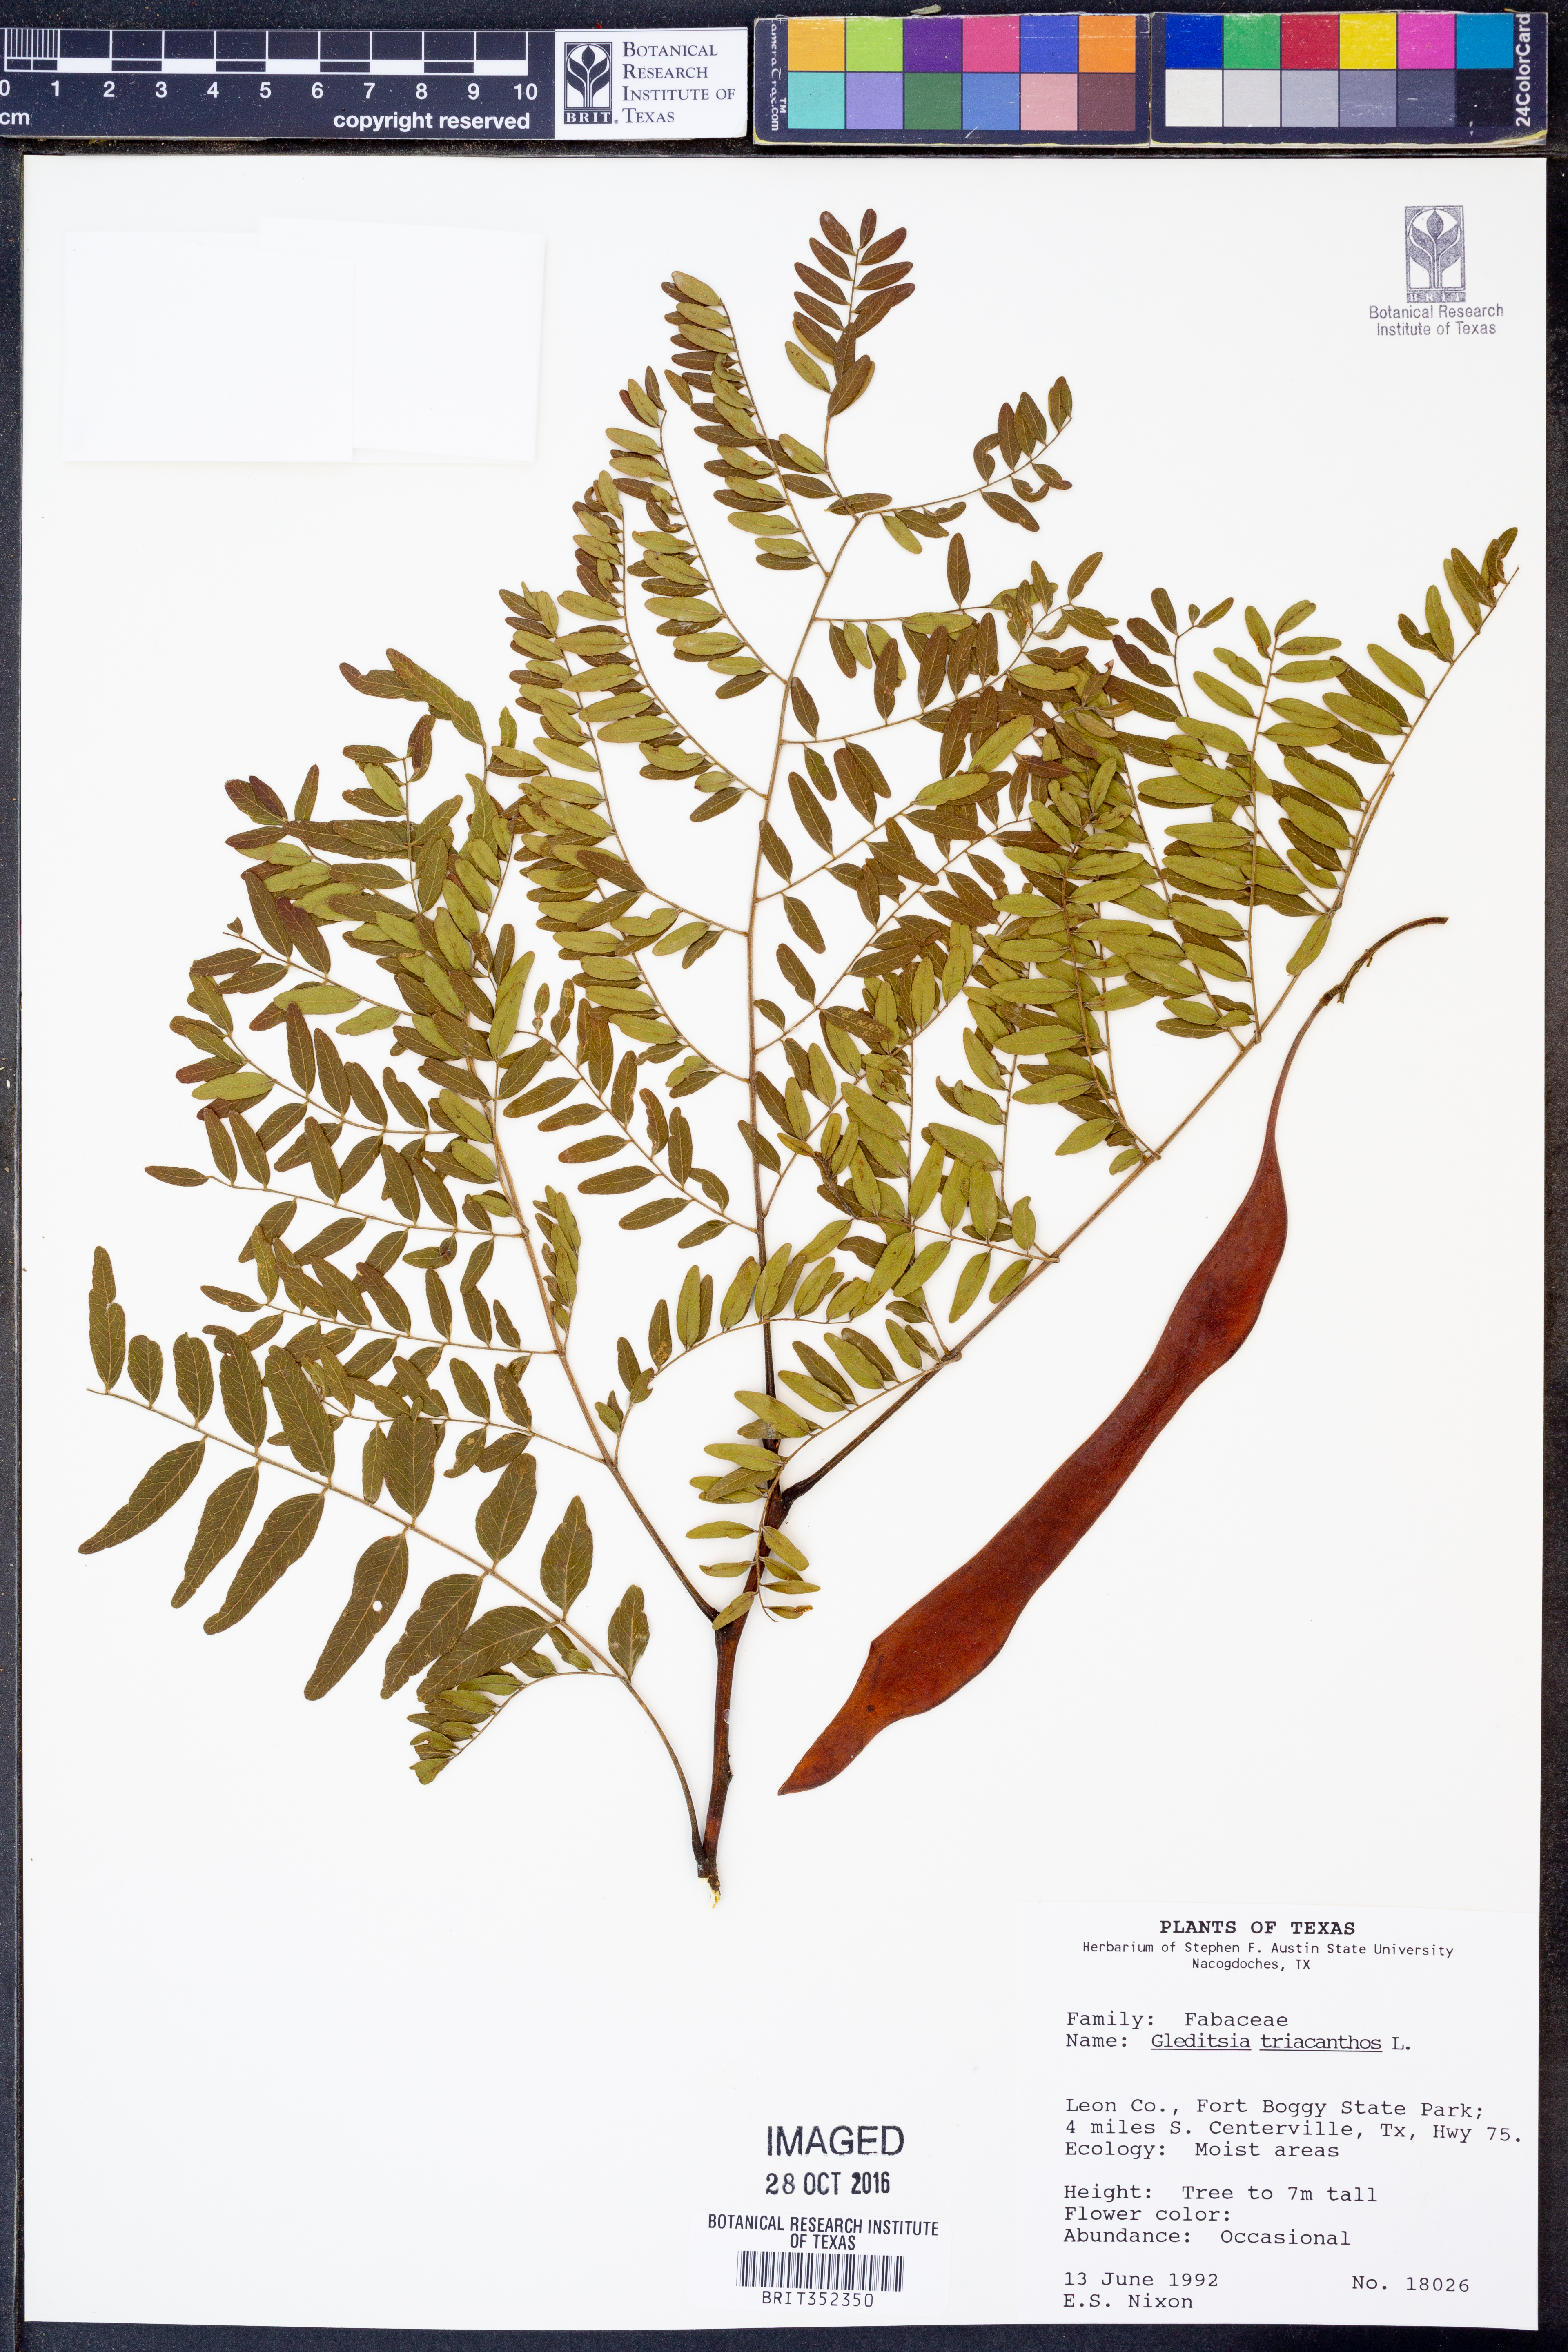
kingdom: Plantae
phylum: Tracheophyta
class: Magnoliopsida
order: Fabales
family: Fabaceae
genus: Gleditsia
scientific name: Gleditsia triacanthos
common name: Common honeylocust
